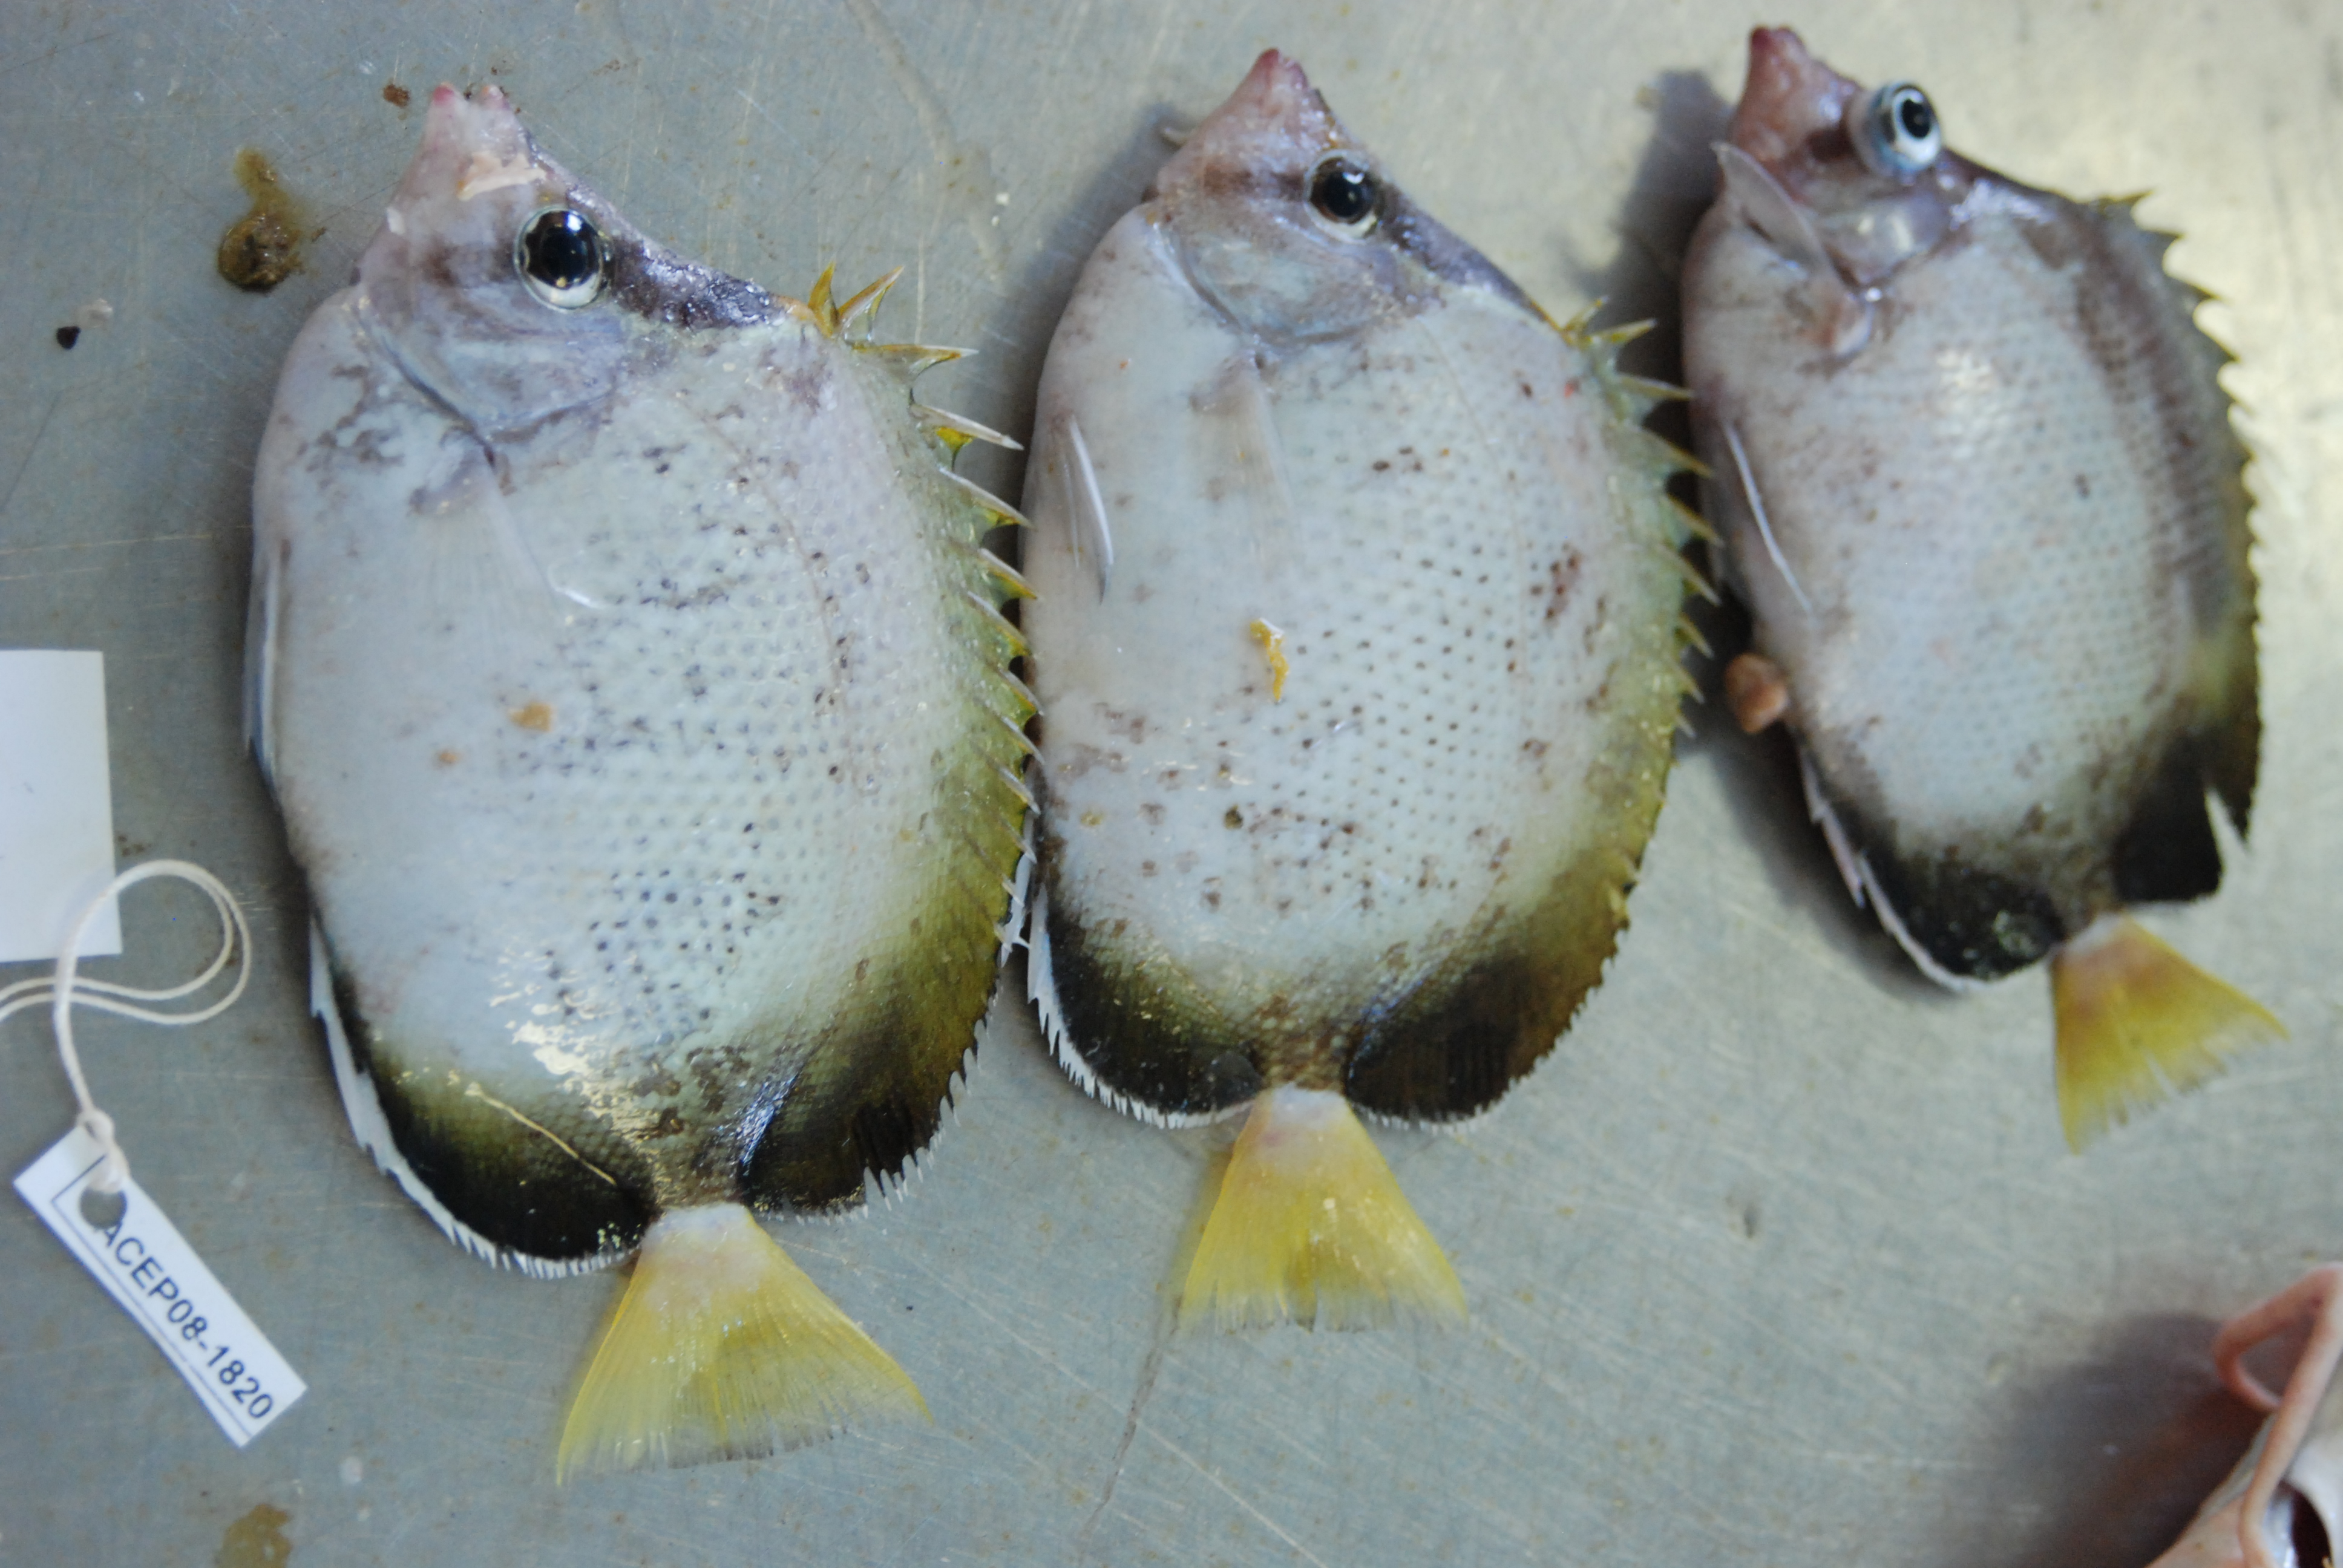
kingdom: Animalia
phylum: Chordata
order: Perciformes
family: Chaetodontidae
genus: Chaetodon
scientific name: Chaetodon dolosus
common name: African butterflyfish
